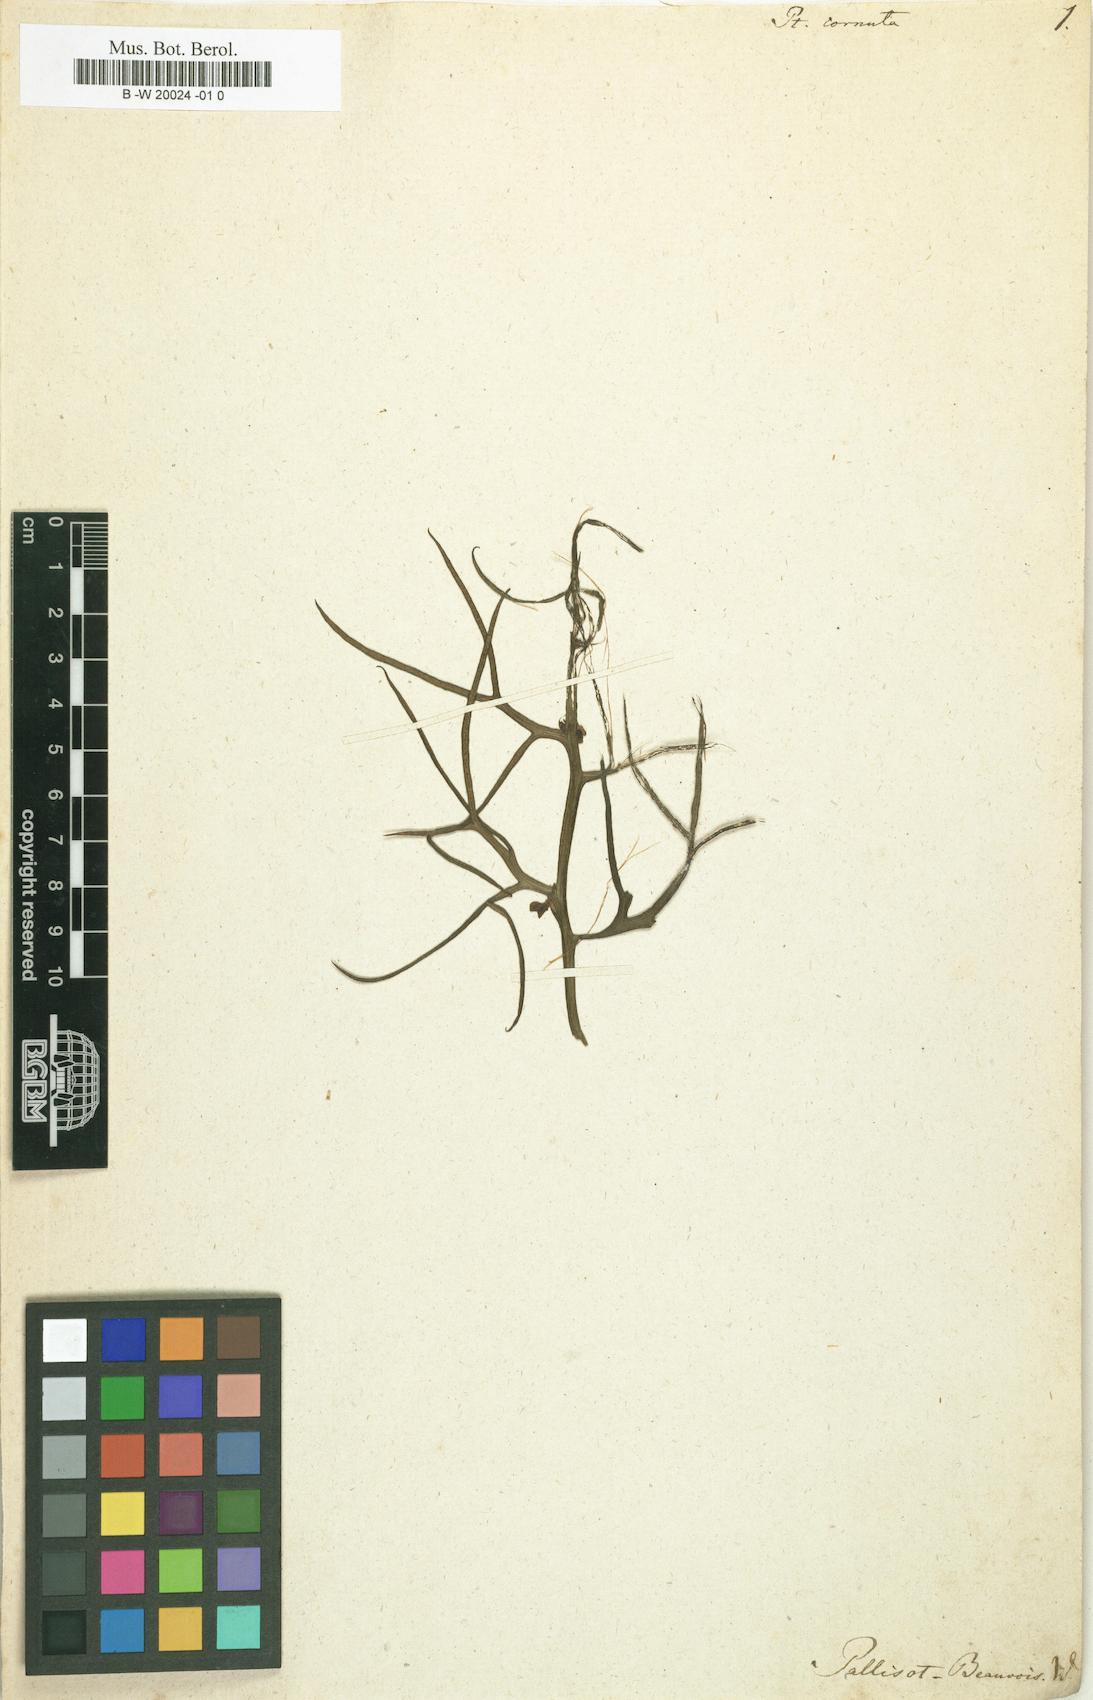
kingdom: Plantae
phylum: Tracheophyta
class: Polypodiopsida
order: Polypodiales
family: Pteridaceae
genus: Pteris
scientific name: Pteris cornuta
